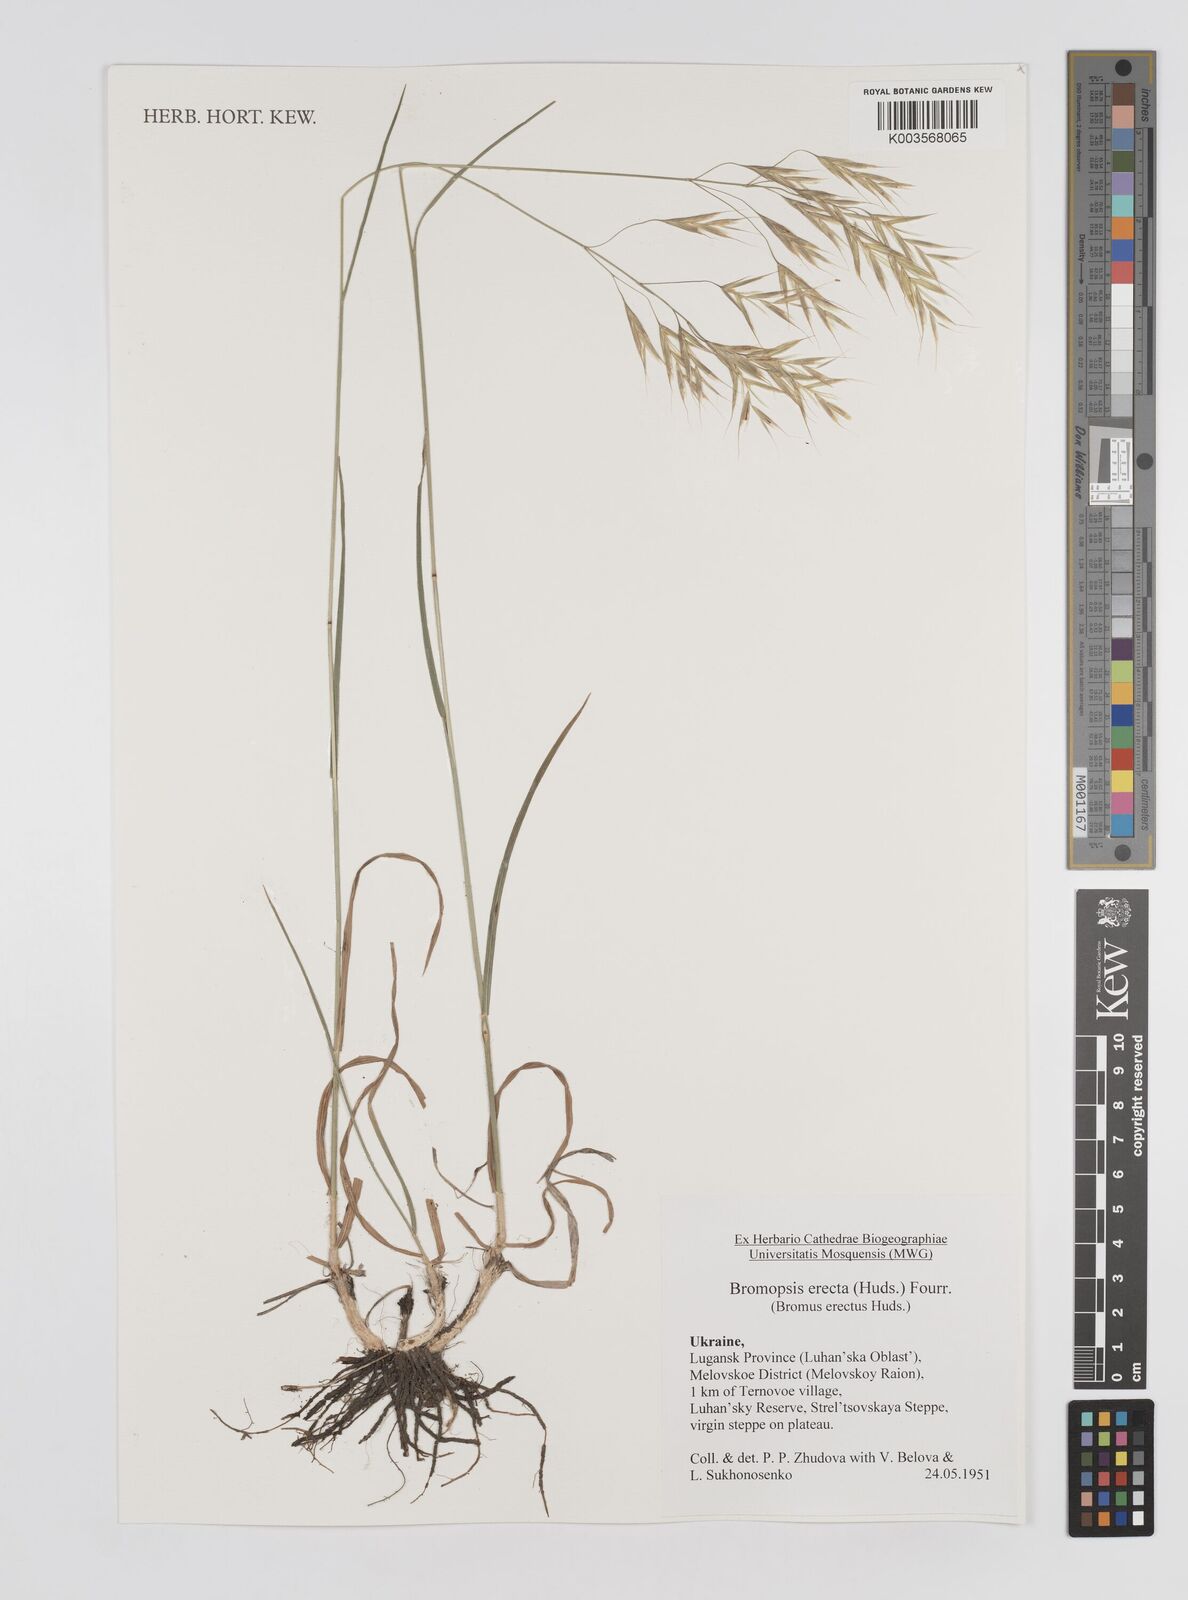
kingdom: Plantae
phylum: Tracheophyta
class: Liliopsida
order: Poales
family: Poaceae
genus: Bromus
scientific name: Bromus erectus
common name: Erect brome
